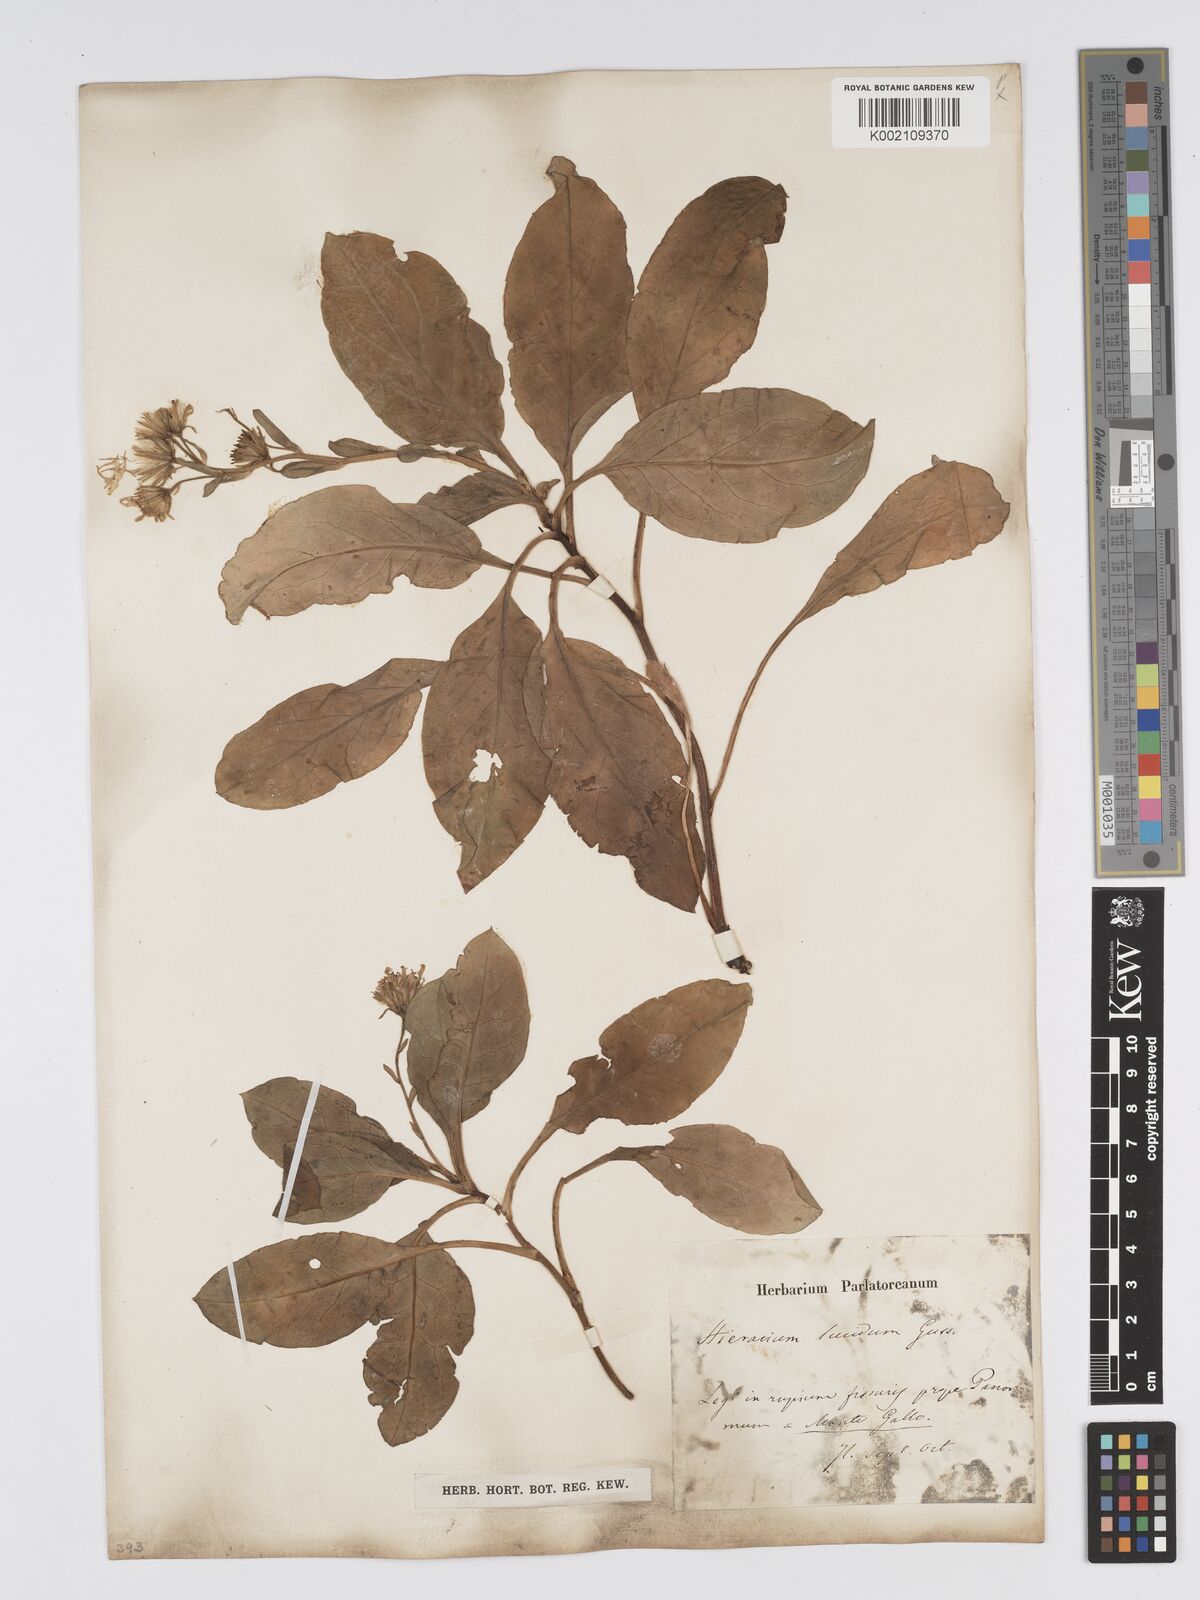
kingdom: Plantae
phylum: Tracheophyta
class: Magnoliopsida
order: Asterales
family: Asteraceae
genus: Hieracium
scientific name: Hieracium lucidum
